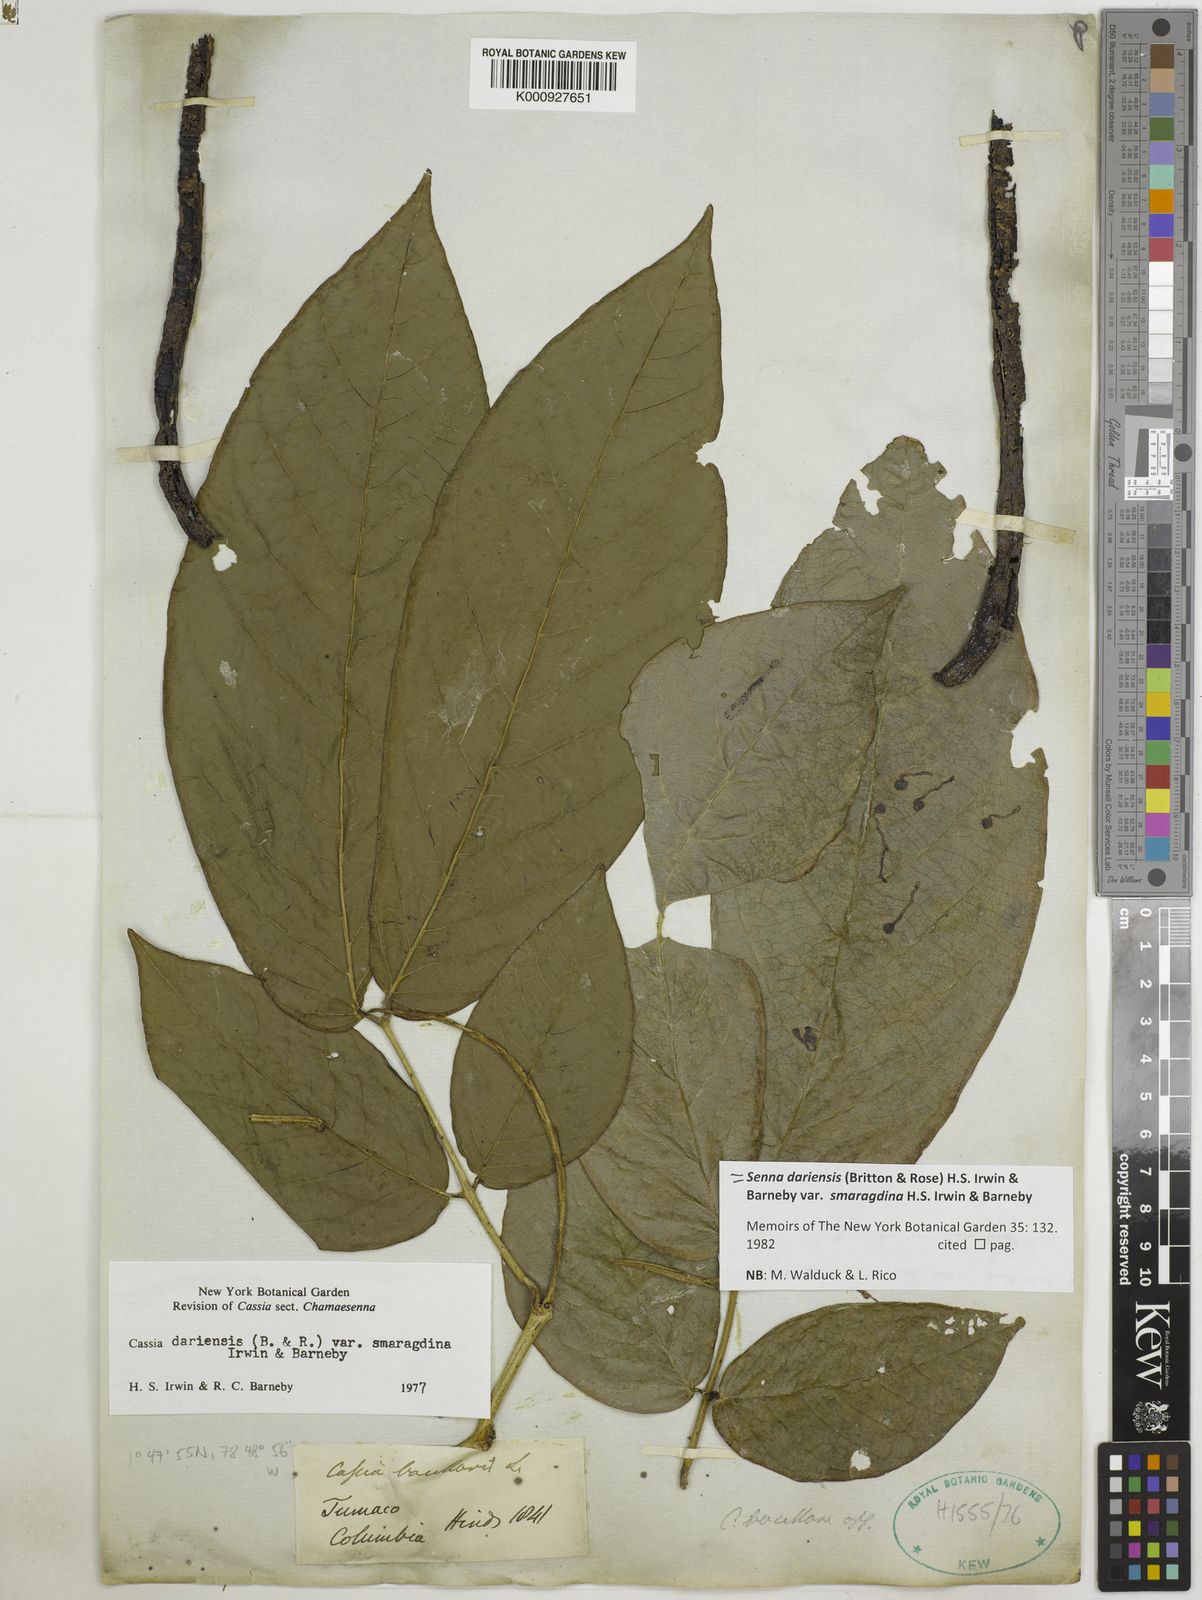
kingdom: Plantae
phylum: Tracheophyta
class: Magnoliopsida
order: Fabales
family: Fabaceae
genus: Senna
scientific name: Senna dariensis
